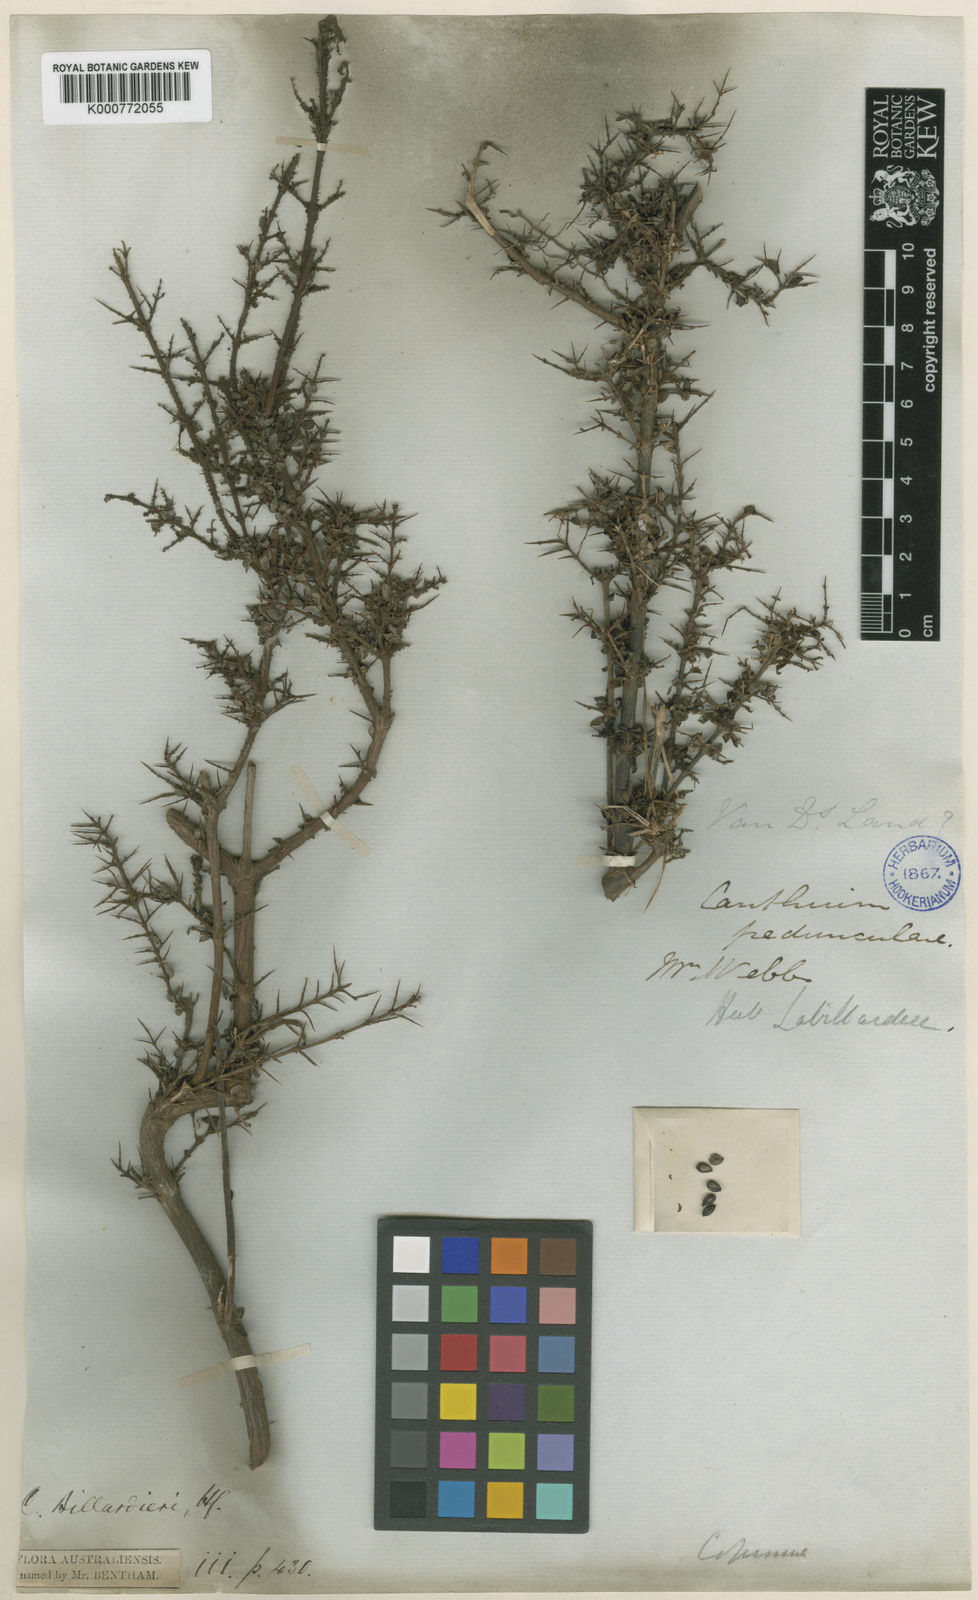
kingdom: Plantae
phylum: Tracheophyta
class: Magnoliopsida
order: Gentianales
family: Rubiaceae
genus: Coprosma
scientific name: Coprosma quadrifida
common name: Prickly currantbush
